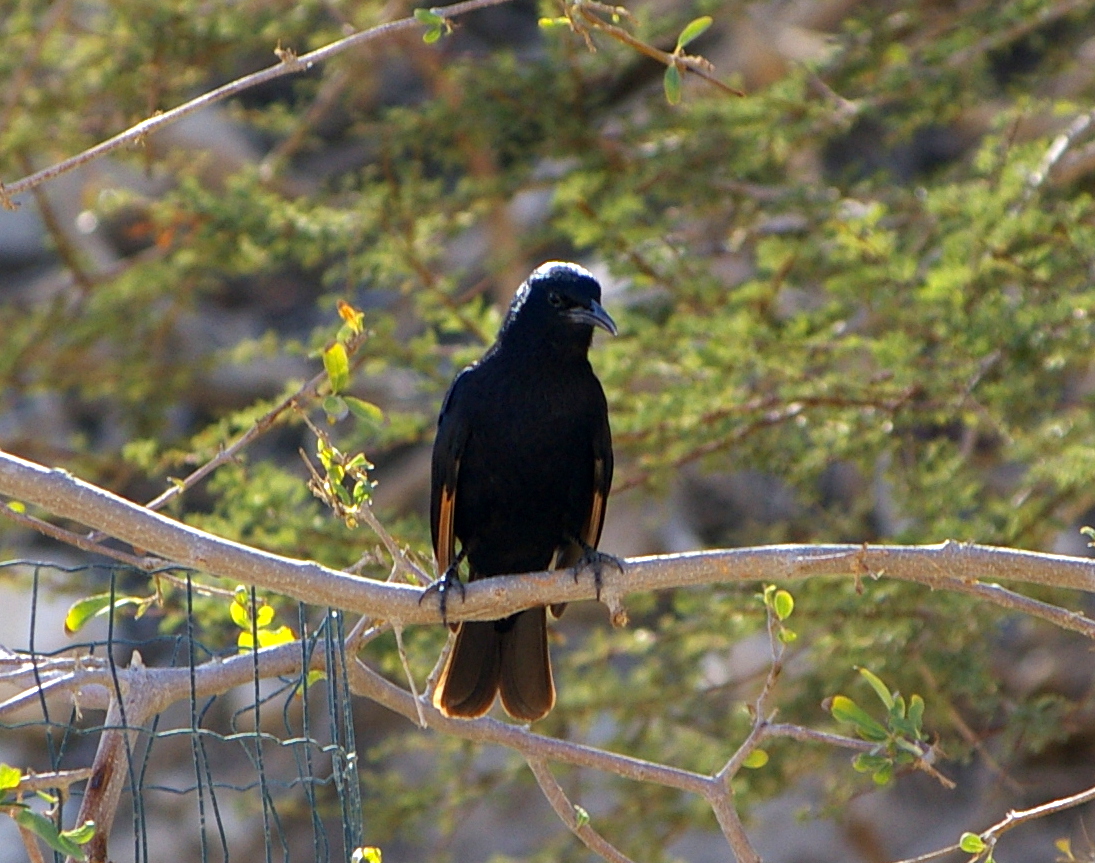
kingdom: Animalia
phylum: Chordata
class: Aves
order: Passeriformes
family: Sturnidae
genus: Onychognathus
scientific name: Onychognathus tristramii
